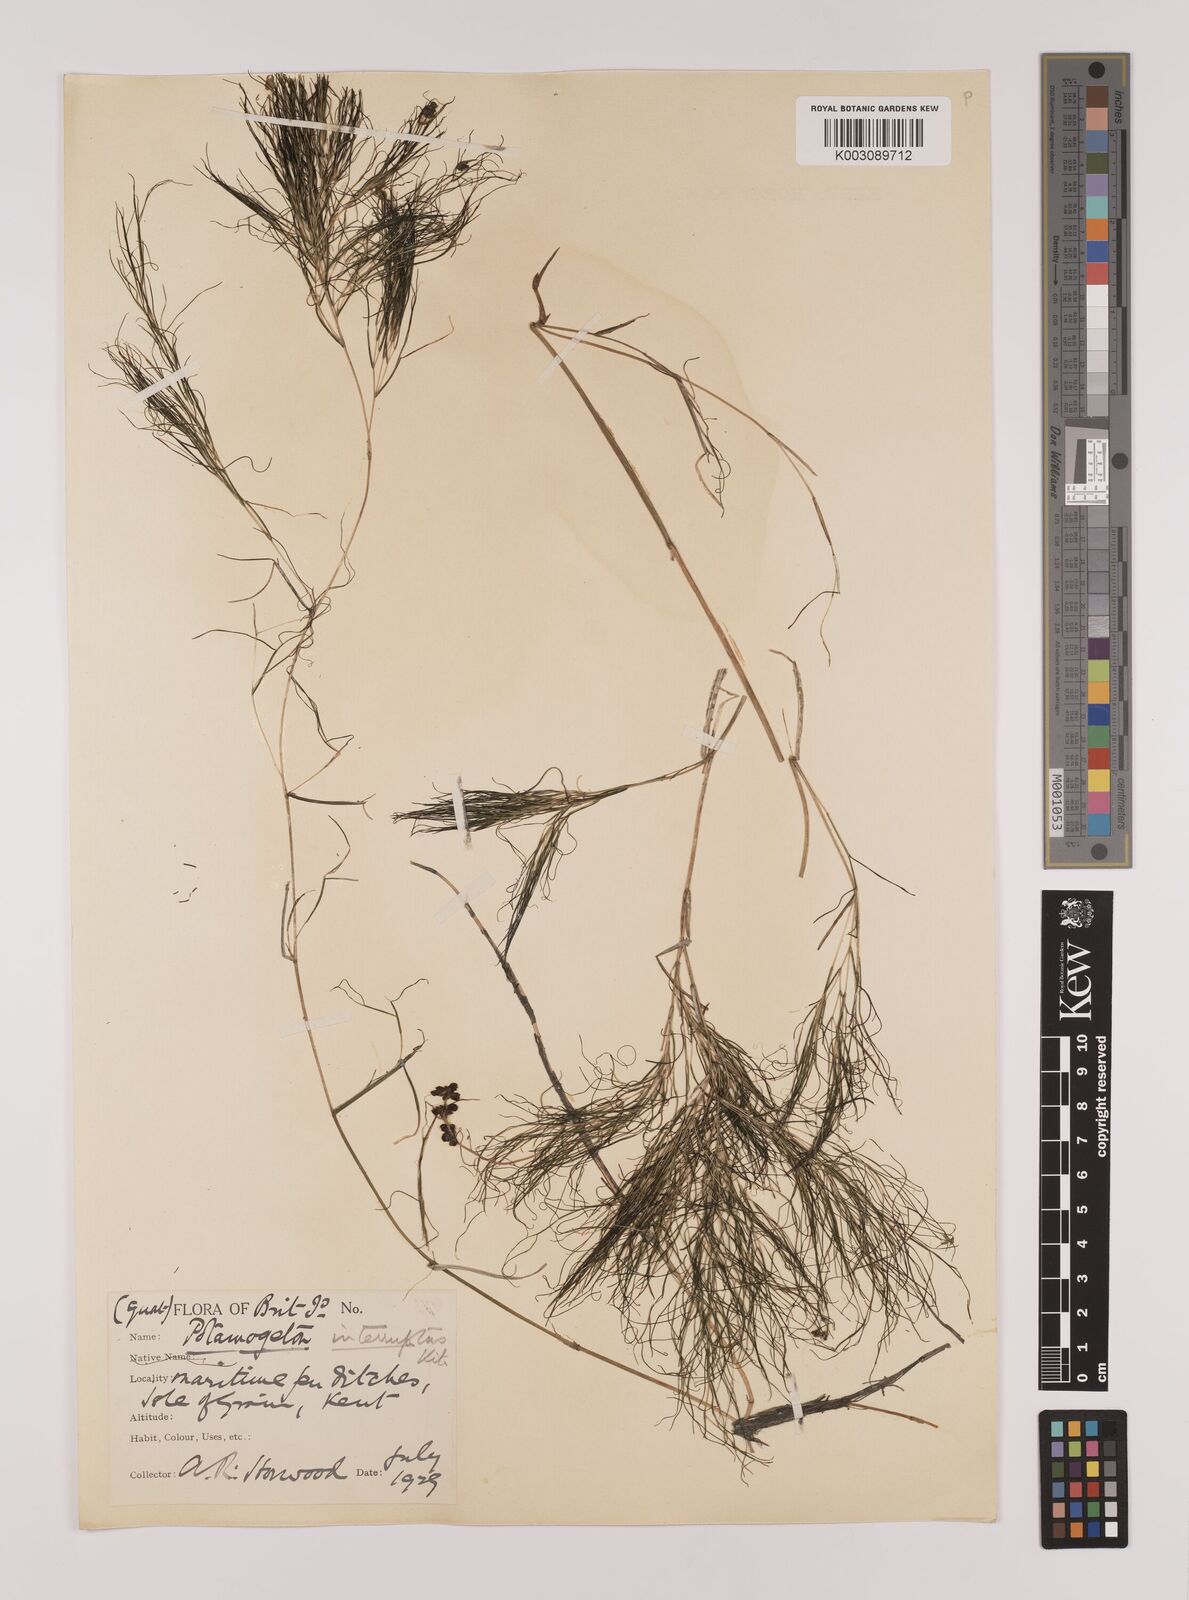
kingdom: Plantae
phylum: Tracheophyta
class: Liliopsida
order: Alismatales
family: Potamogetonaceae
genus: Stuckenia
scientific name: Stuckenia pectinata
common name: Sago pondweed
